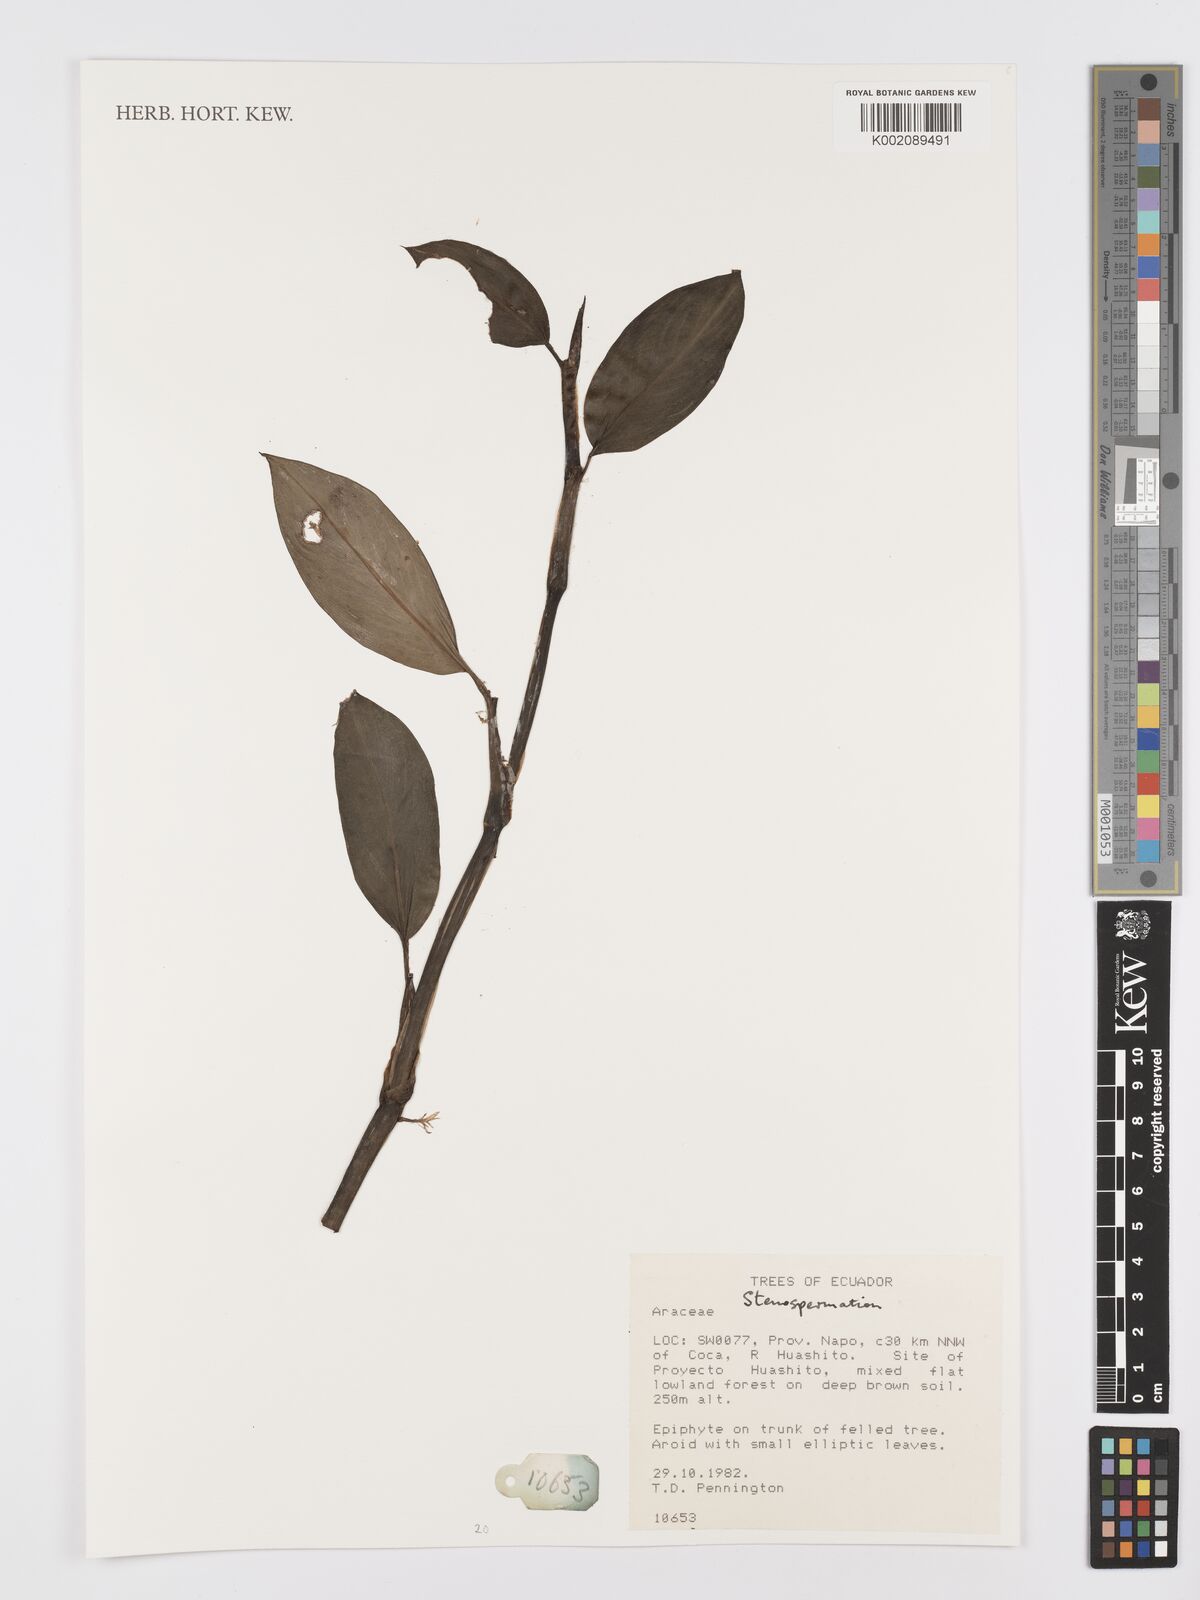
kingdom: Plantae
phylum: Tracheophyta
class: Liliopsida
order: Alismatales
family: Araceae
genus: Stenospermation
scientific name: Stenospermation
